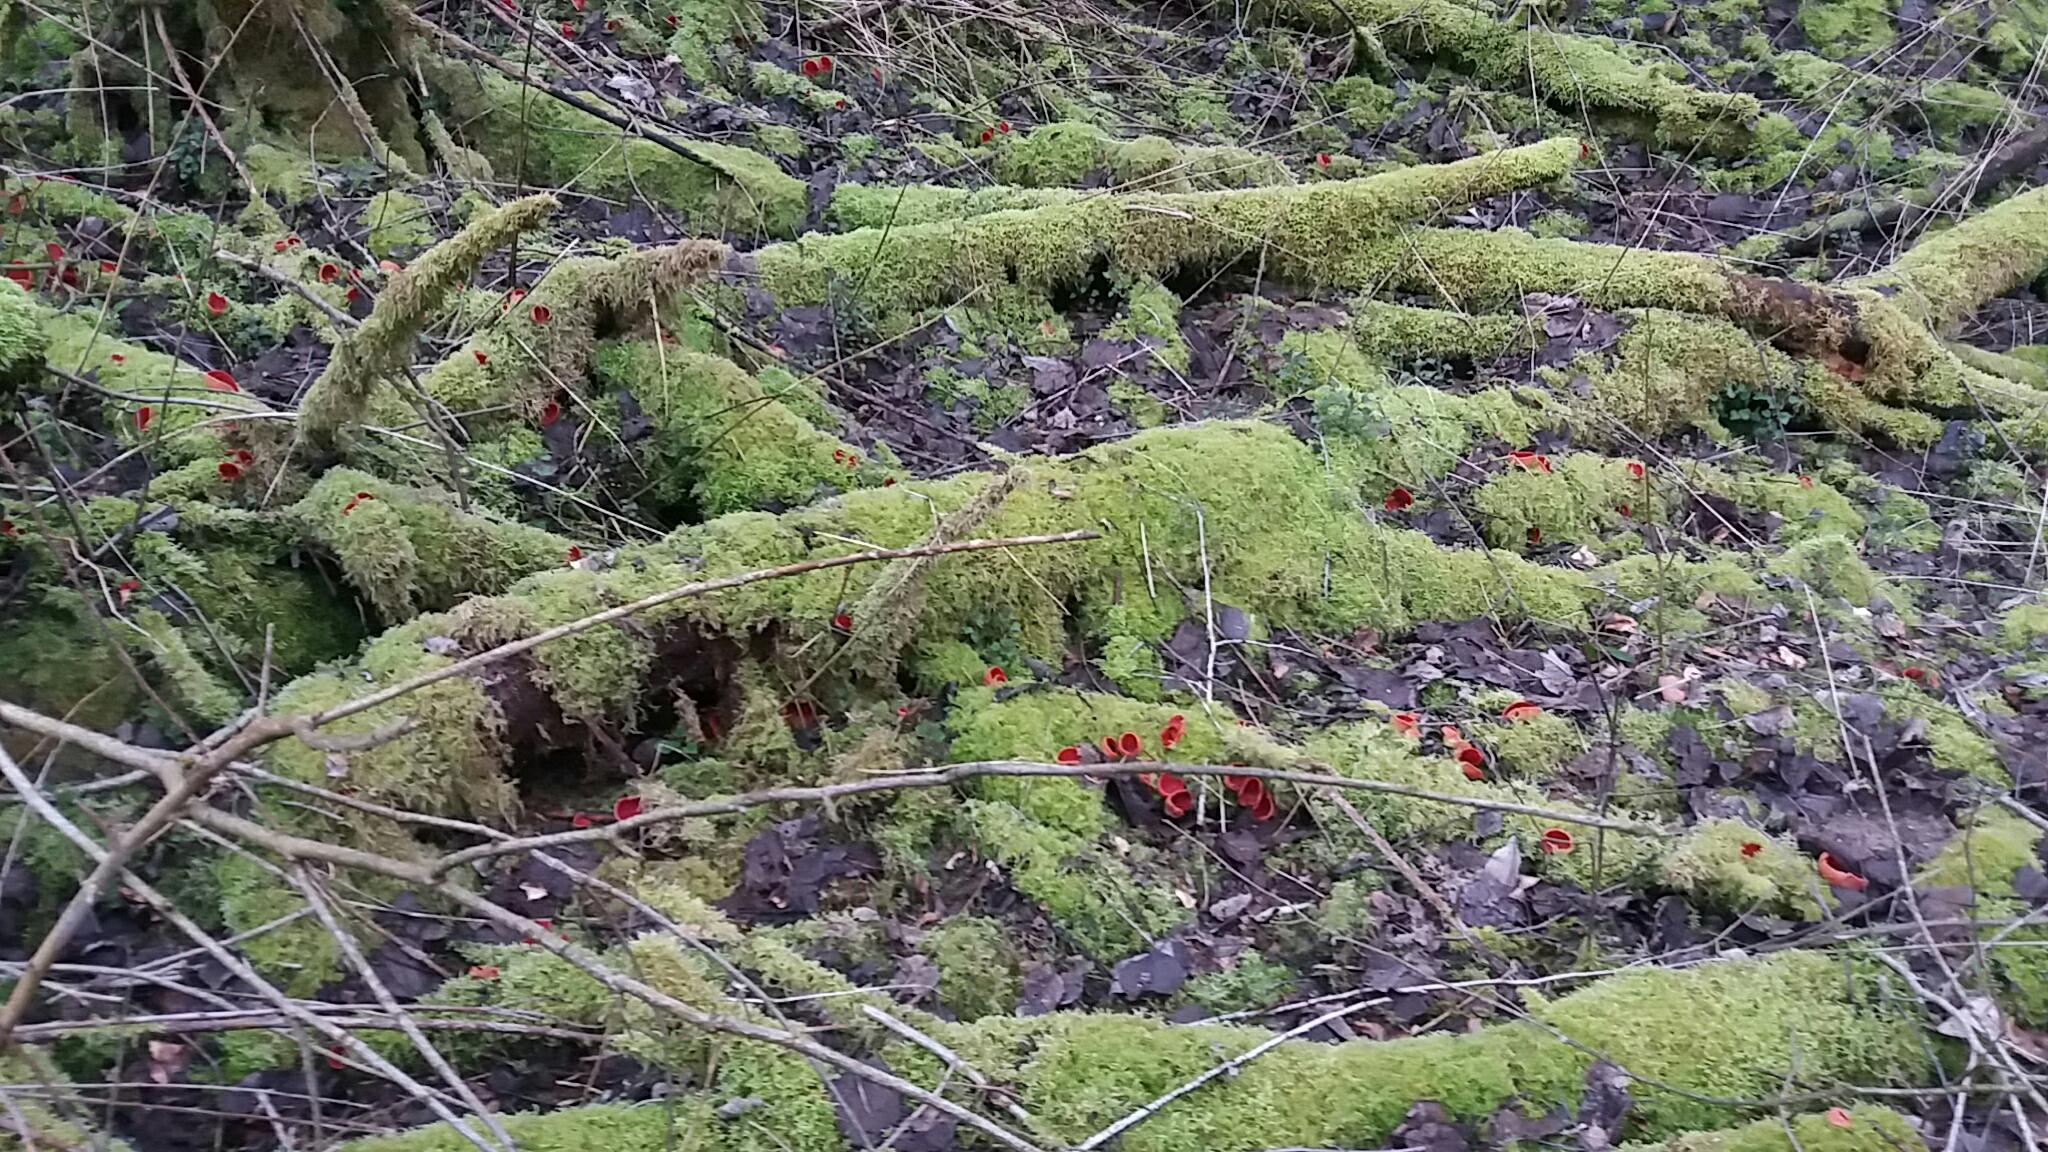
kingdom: Fungi
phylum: Ascomycota
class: Pezizomycetes
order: Pezizales
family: Sarcoscyphaceae
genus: Sarcoscypha
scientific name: Sarcoscypha austriaca
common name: krølhåret pragtbæger
